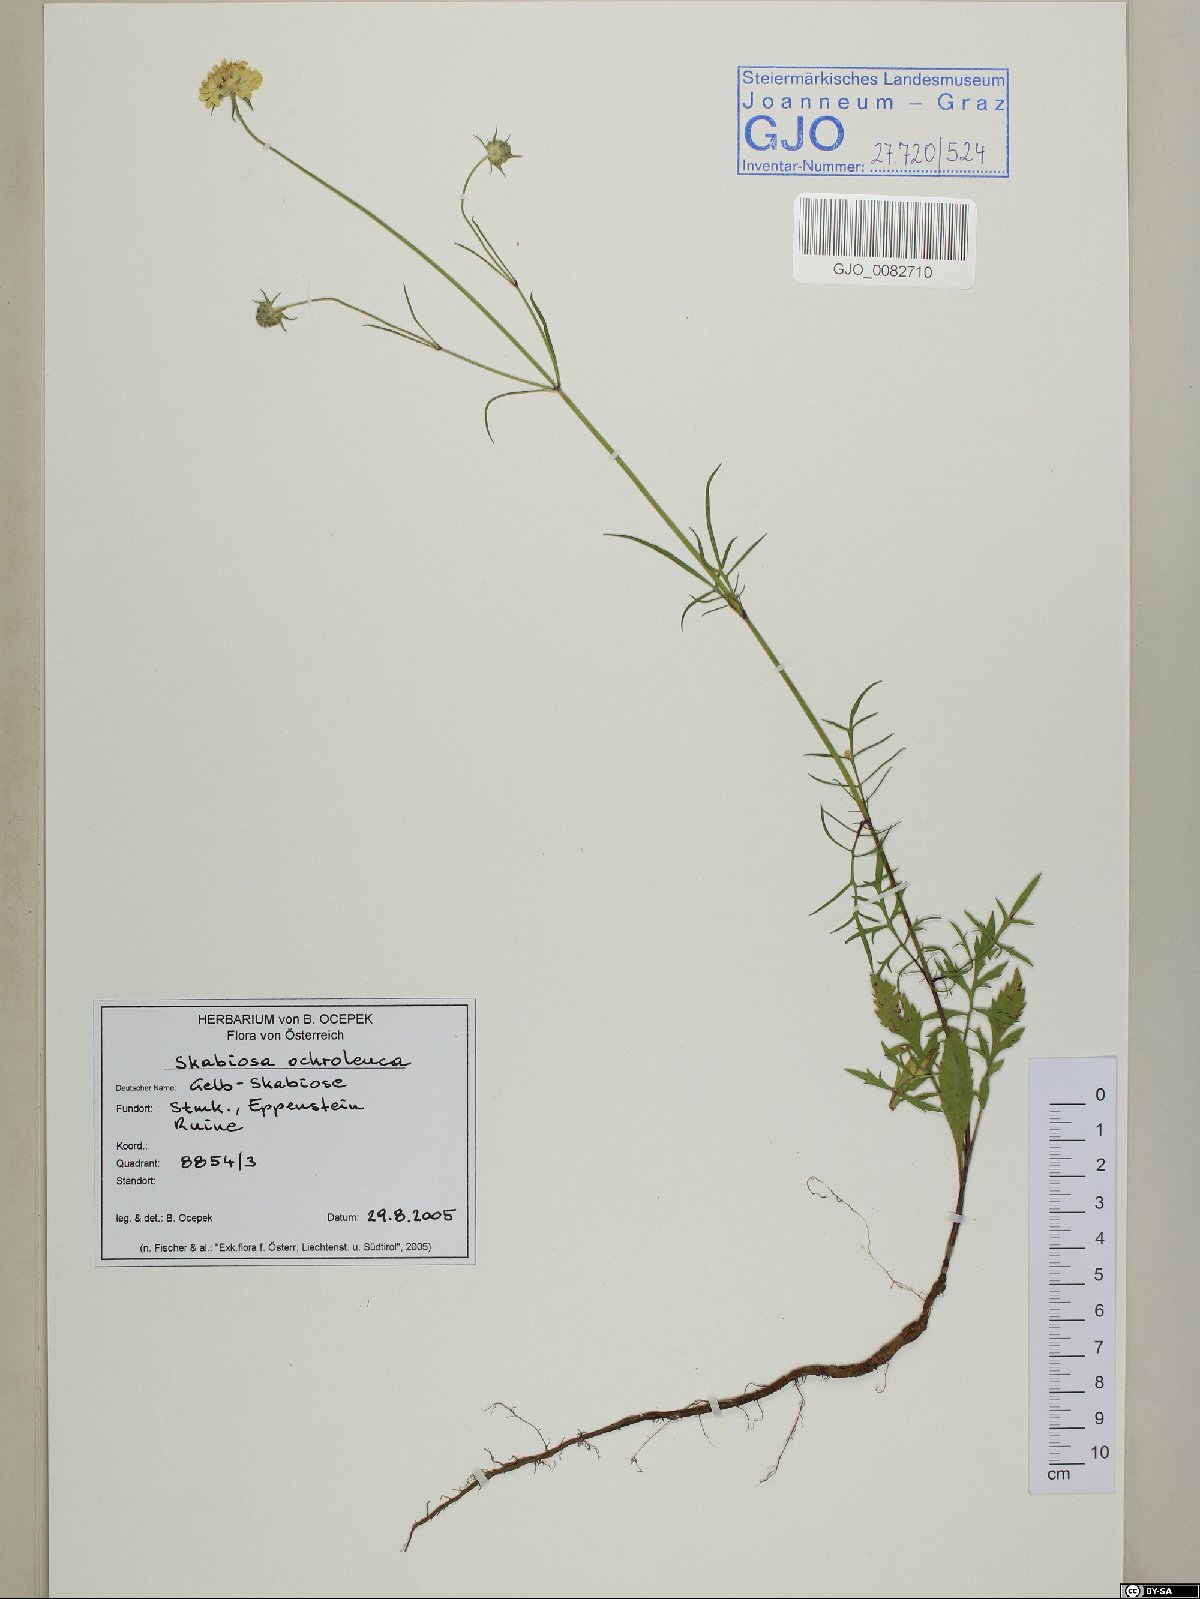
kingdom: Plantae
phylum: Tracheophyta
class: Magnoliopsida
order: Dipsacales
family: Caprifoliaceae
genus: Scabiosa
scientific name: Scabiosa ochroleuca
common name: Cream pincushions
